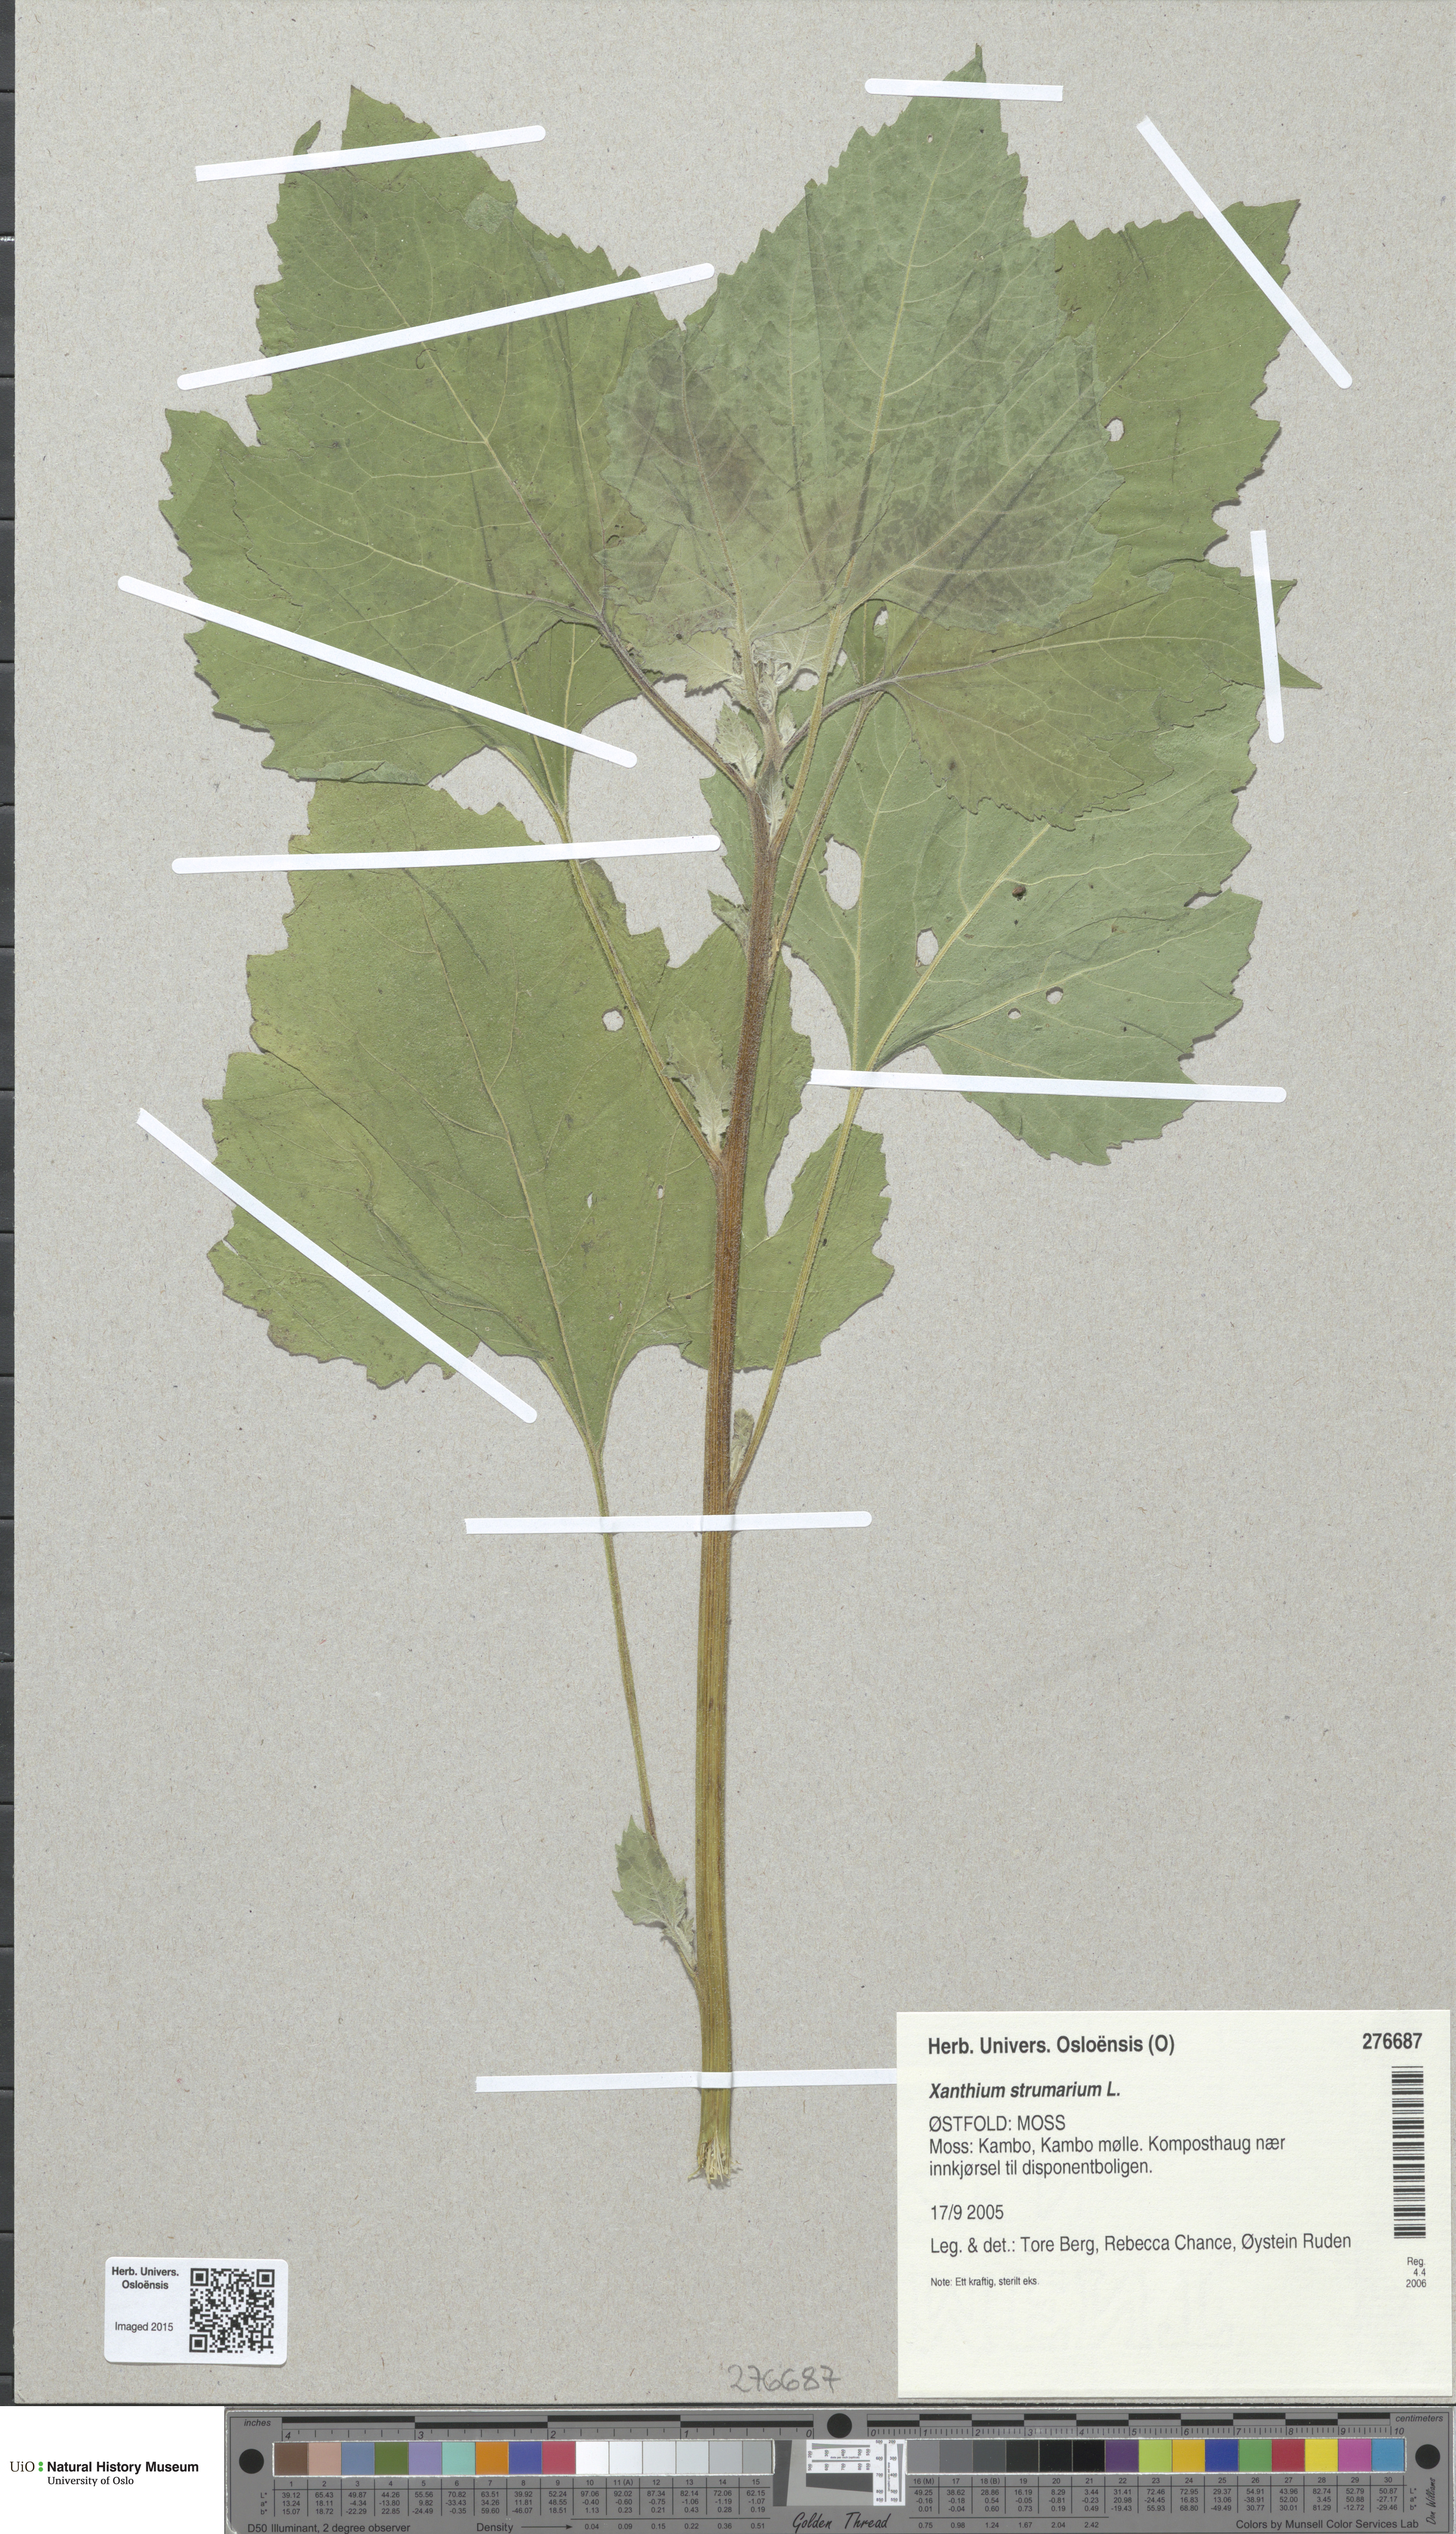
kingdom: Plantae
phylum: Tracheophyta
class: Magnoliopsida
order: Asterales
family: Asteraceae
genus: Xanthium
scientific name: Xanthium strumarium
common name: Rough cocklebur
